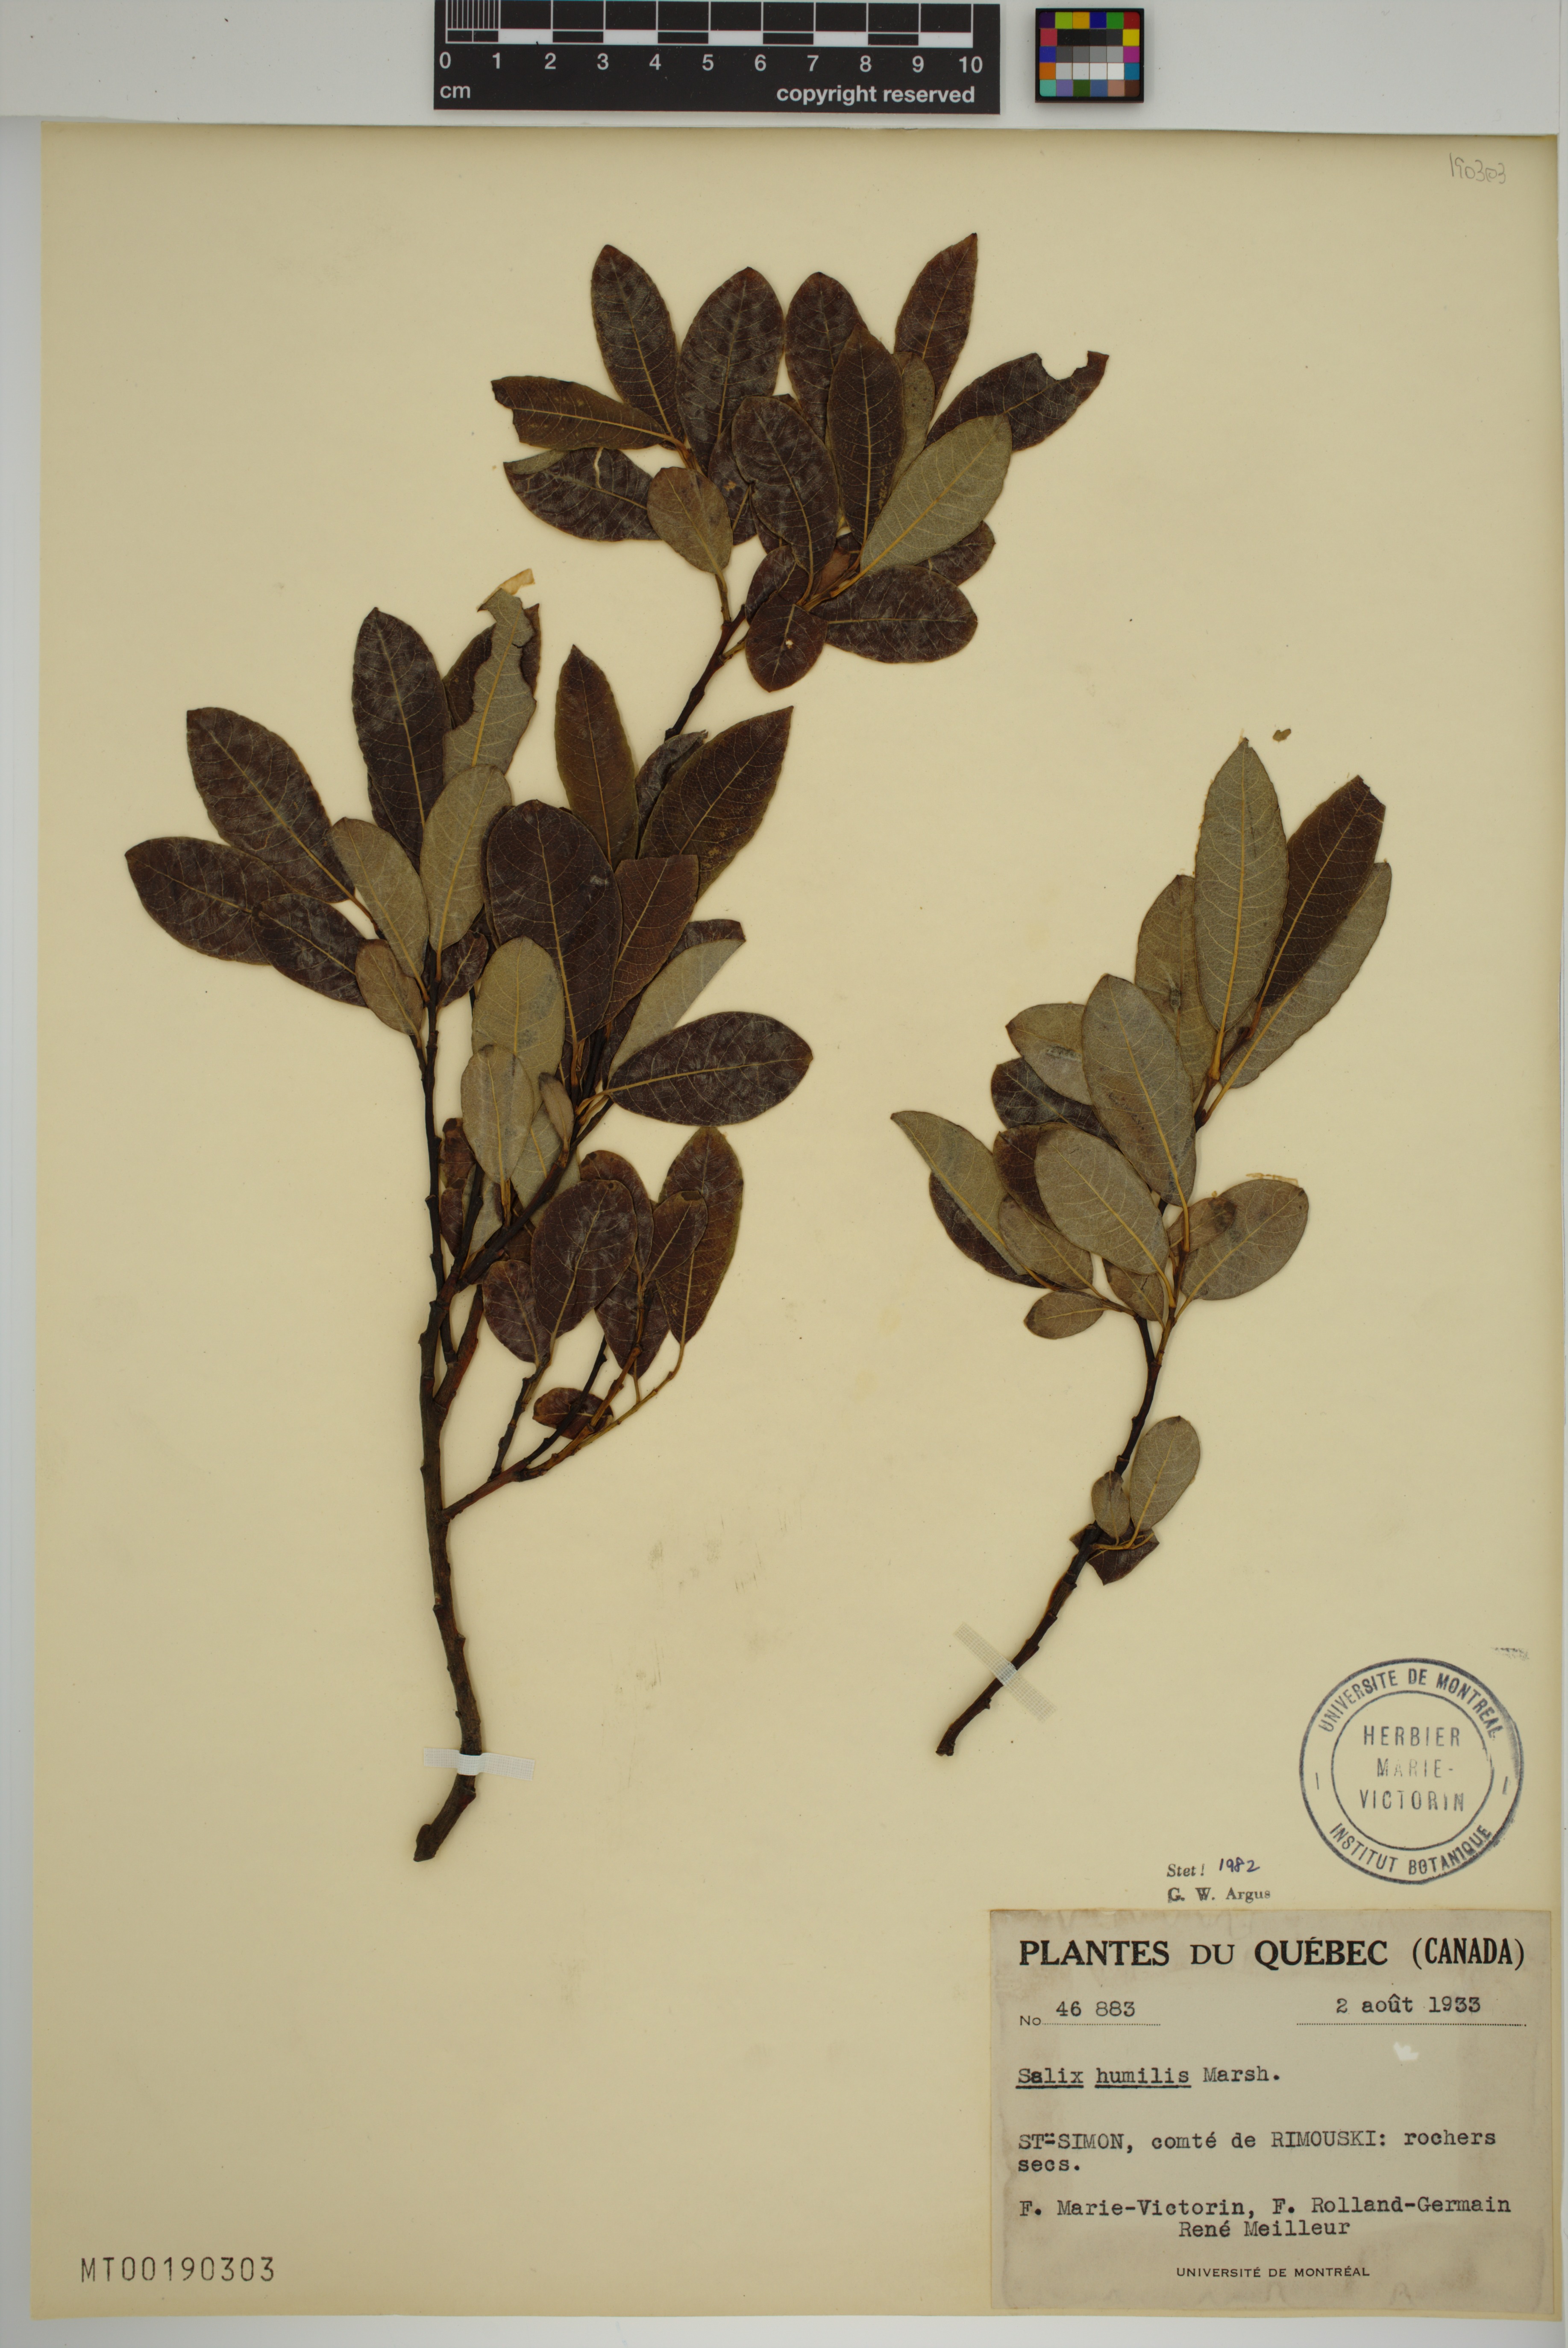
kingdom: Plantae
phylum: Tracheophyta
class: Magnoliopsida
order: Malpighiales
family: Salicaceae
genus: Salix
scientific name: Salix humilis
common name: Prairie willow
